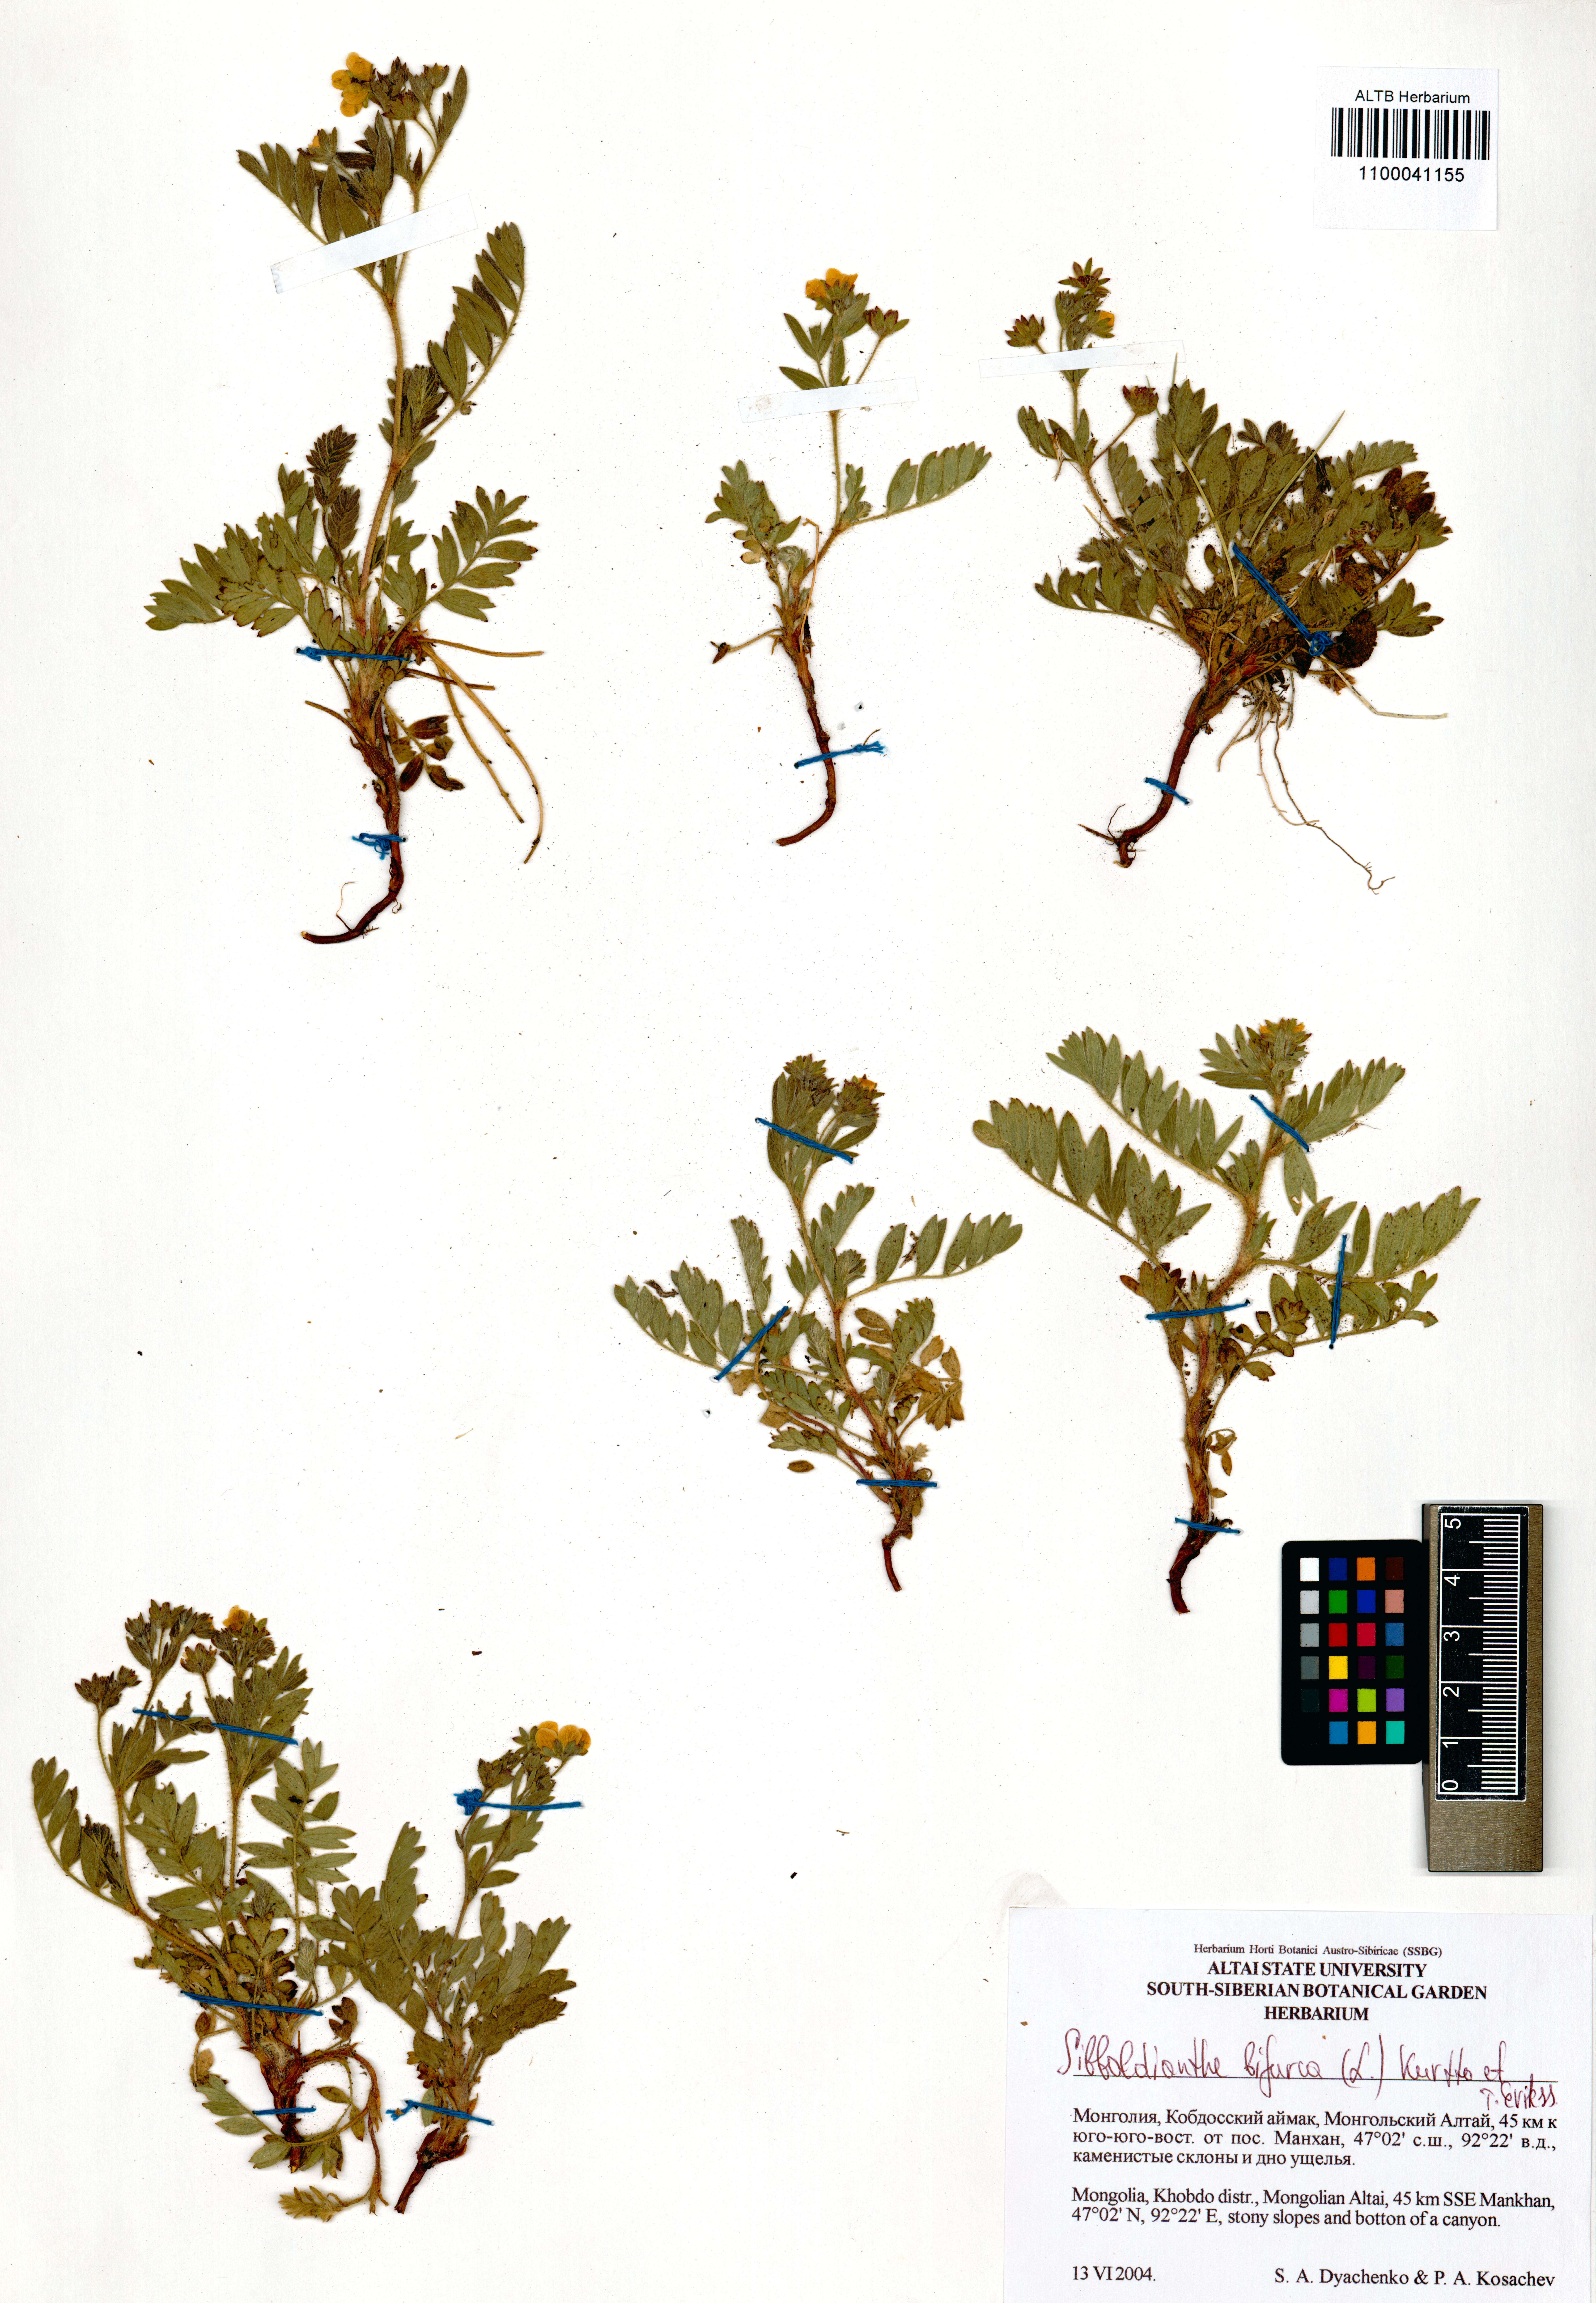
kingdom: Plantae
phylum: Tracheophyta
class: Magnoliopsida
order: Rosales
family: Rosaceae
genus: Sibbaldianthe
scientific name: Sibbaldianthe bifurca
